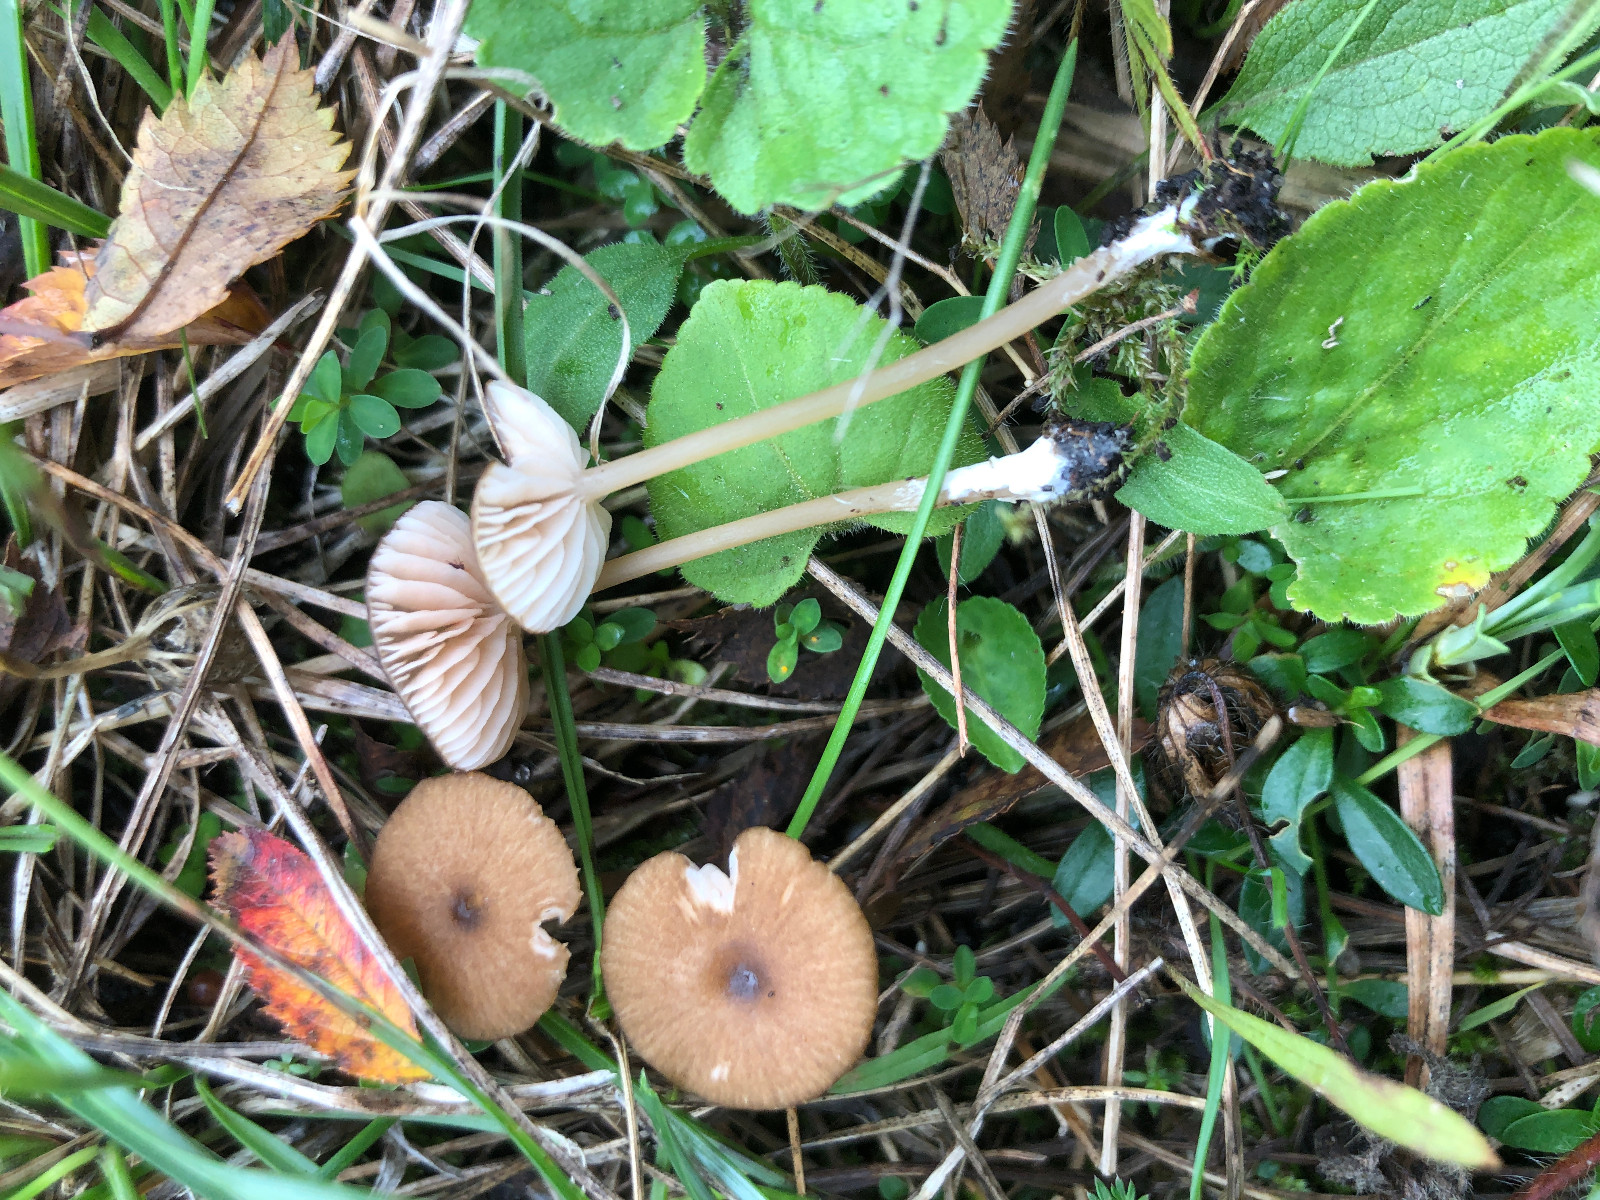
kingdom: Fungi
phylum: Basidiomycota
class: Agaricomycetes
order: Agaricales
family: Entolomataceae
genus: Entoloma
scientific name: Entoloma olivaceotinctum
